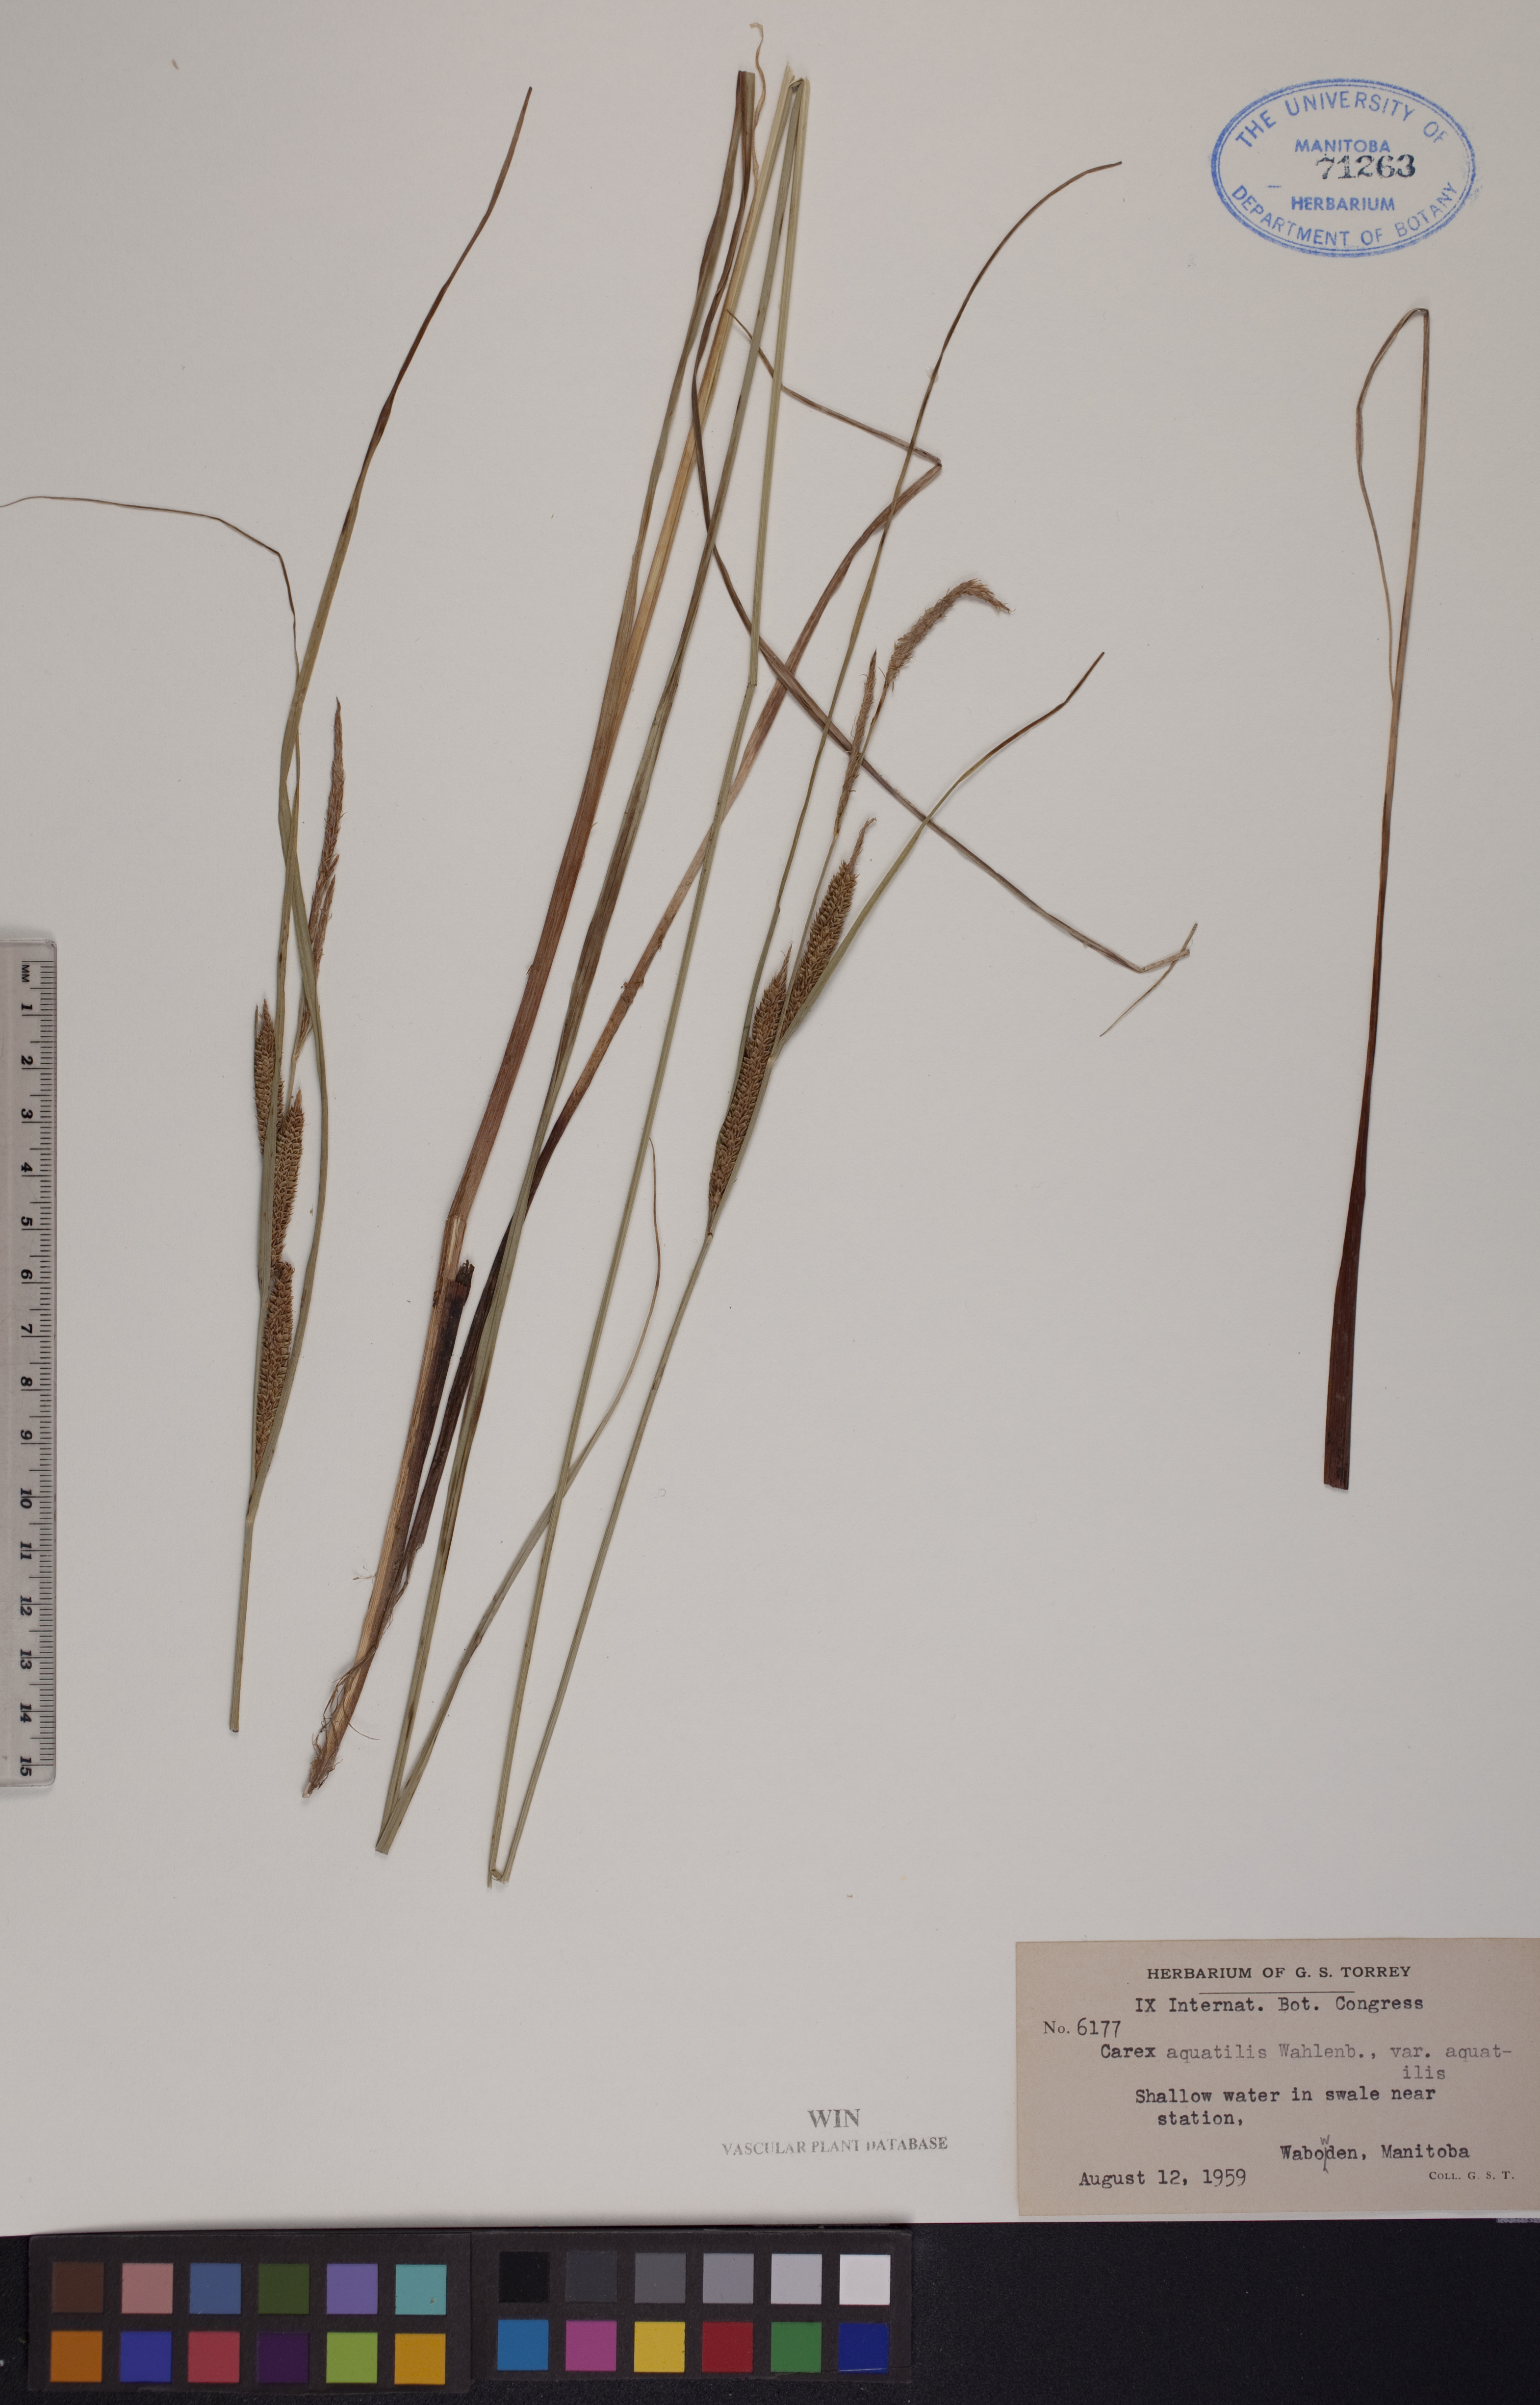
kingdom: Plantae
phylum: Tracheophyta
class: Liliopsida
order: Poales
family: Cyperaceae
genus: Carex
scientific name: Carex aquatilis
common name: Water sedge
